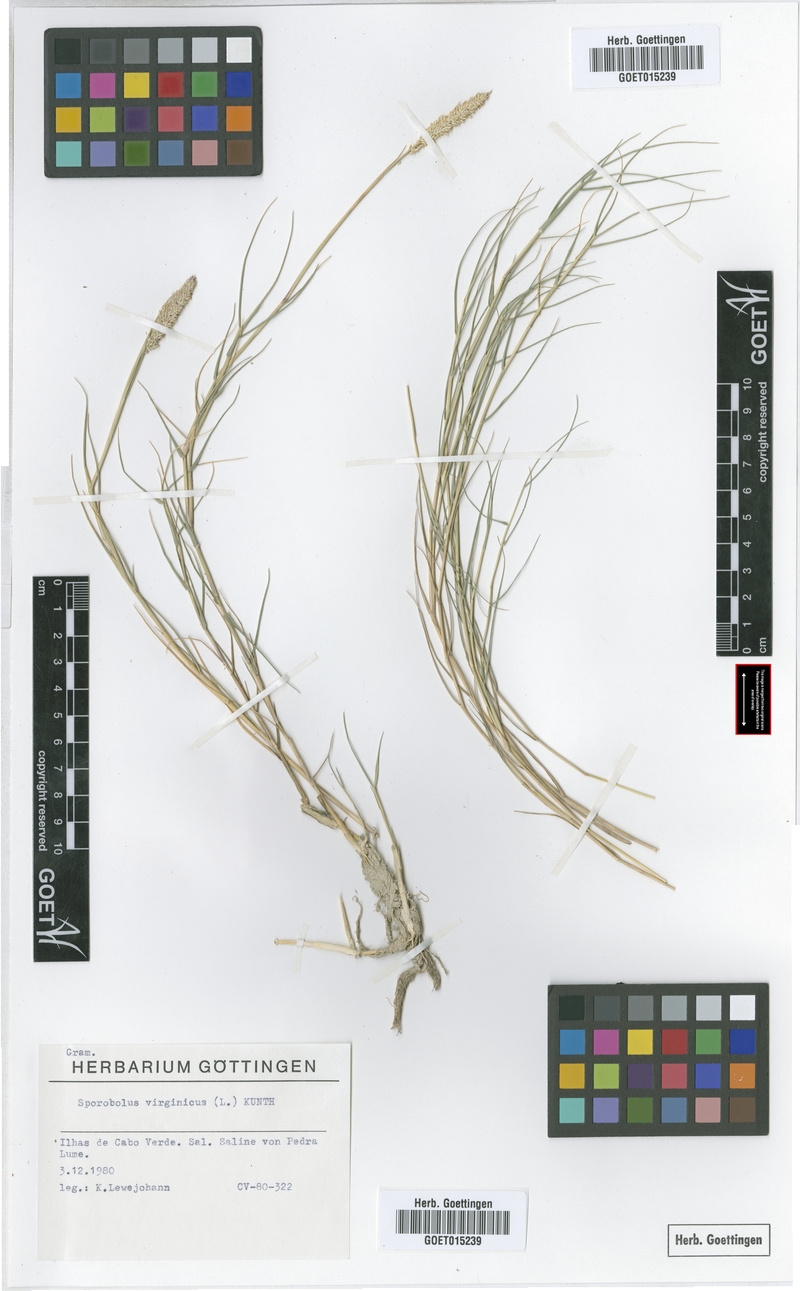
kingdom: Plantae
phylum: Tracheophyta
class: Liliopsida
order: Poales
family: Poaceae
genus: Sporobolus
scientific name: Sporobolus virginicus
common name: Beach dropseed
